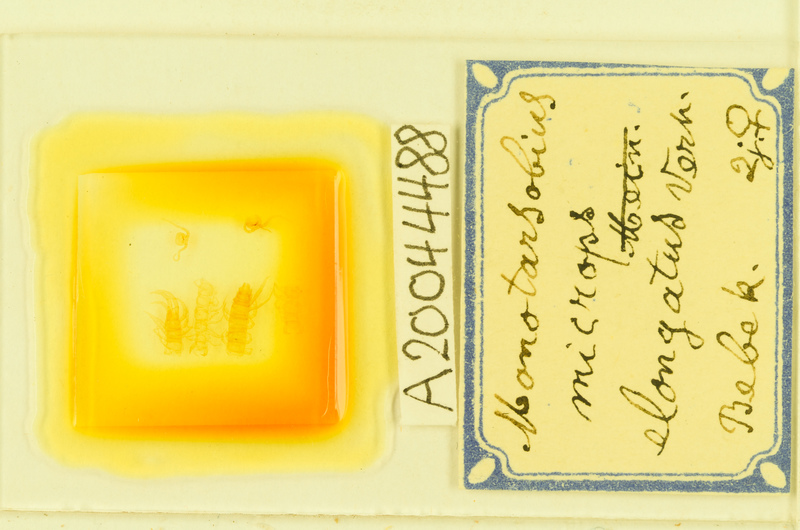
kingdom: Animalia
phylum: Arthropoda
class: Chilopoda
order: Lithobiomorpha
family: Lithobiidae
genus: Monotarsobius
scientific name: Monotarsobius microps
